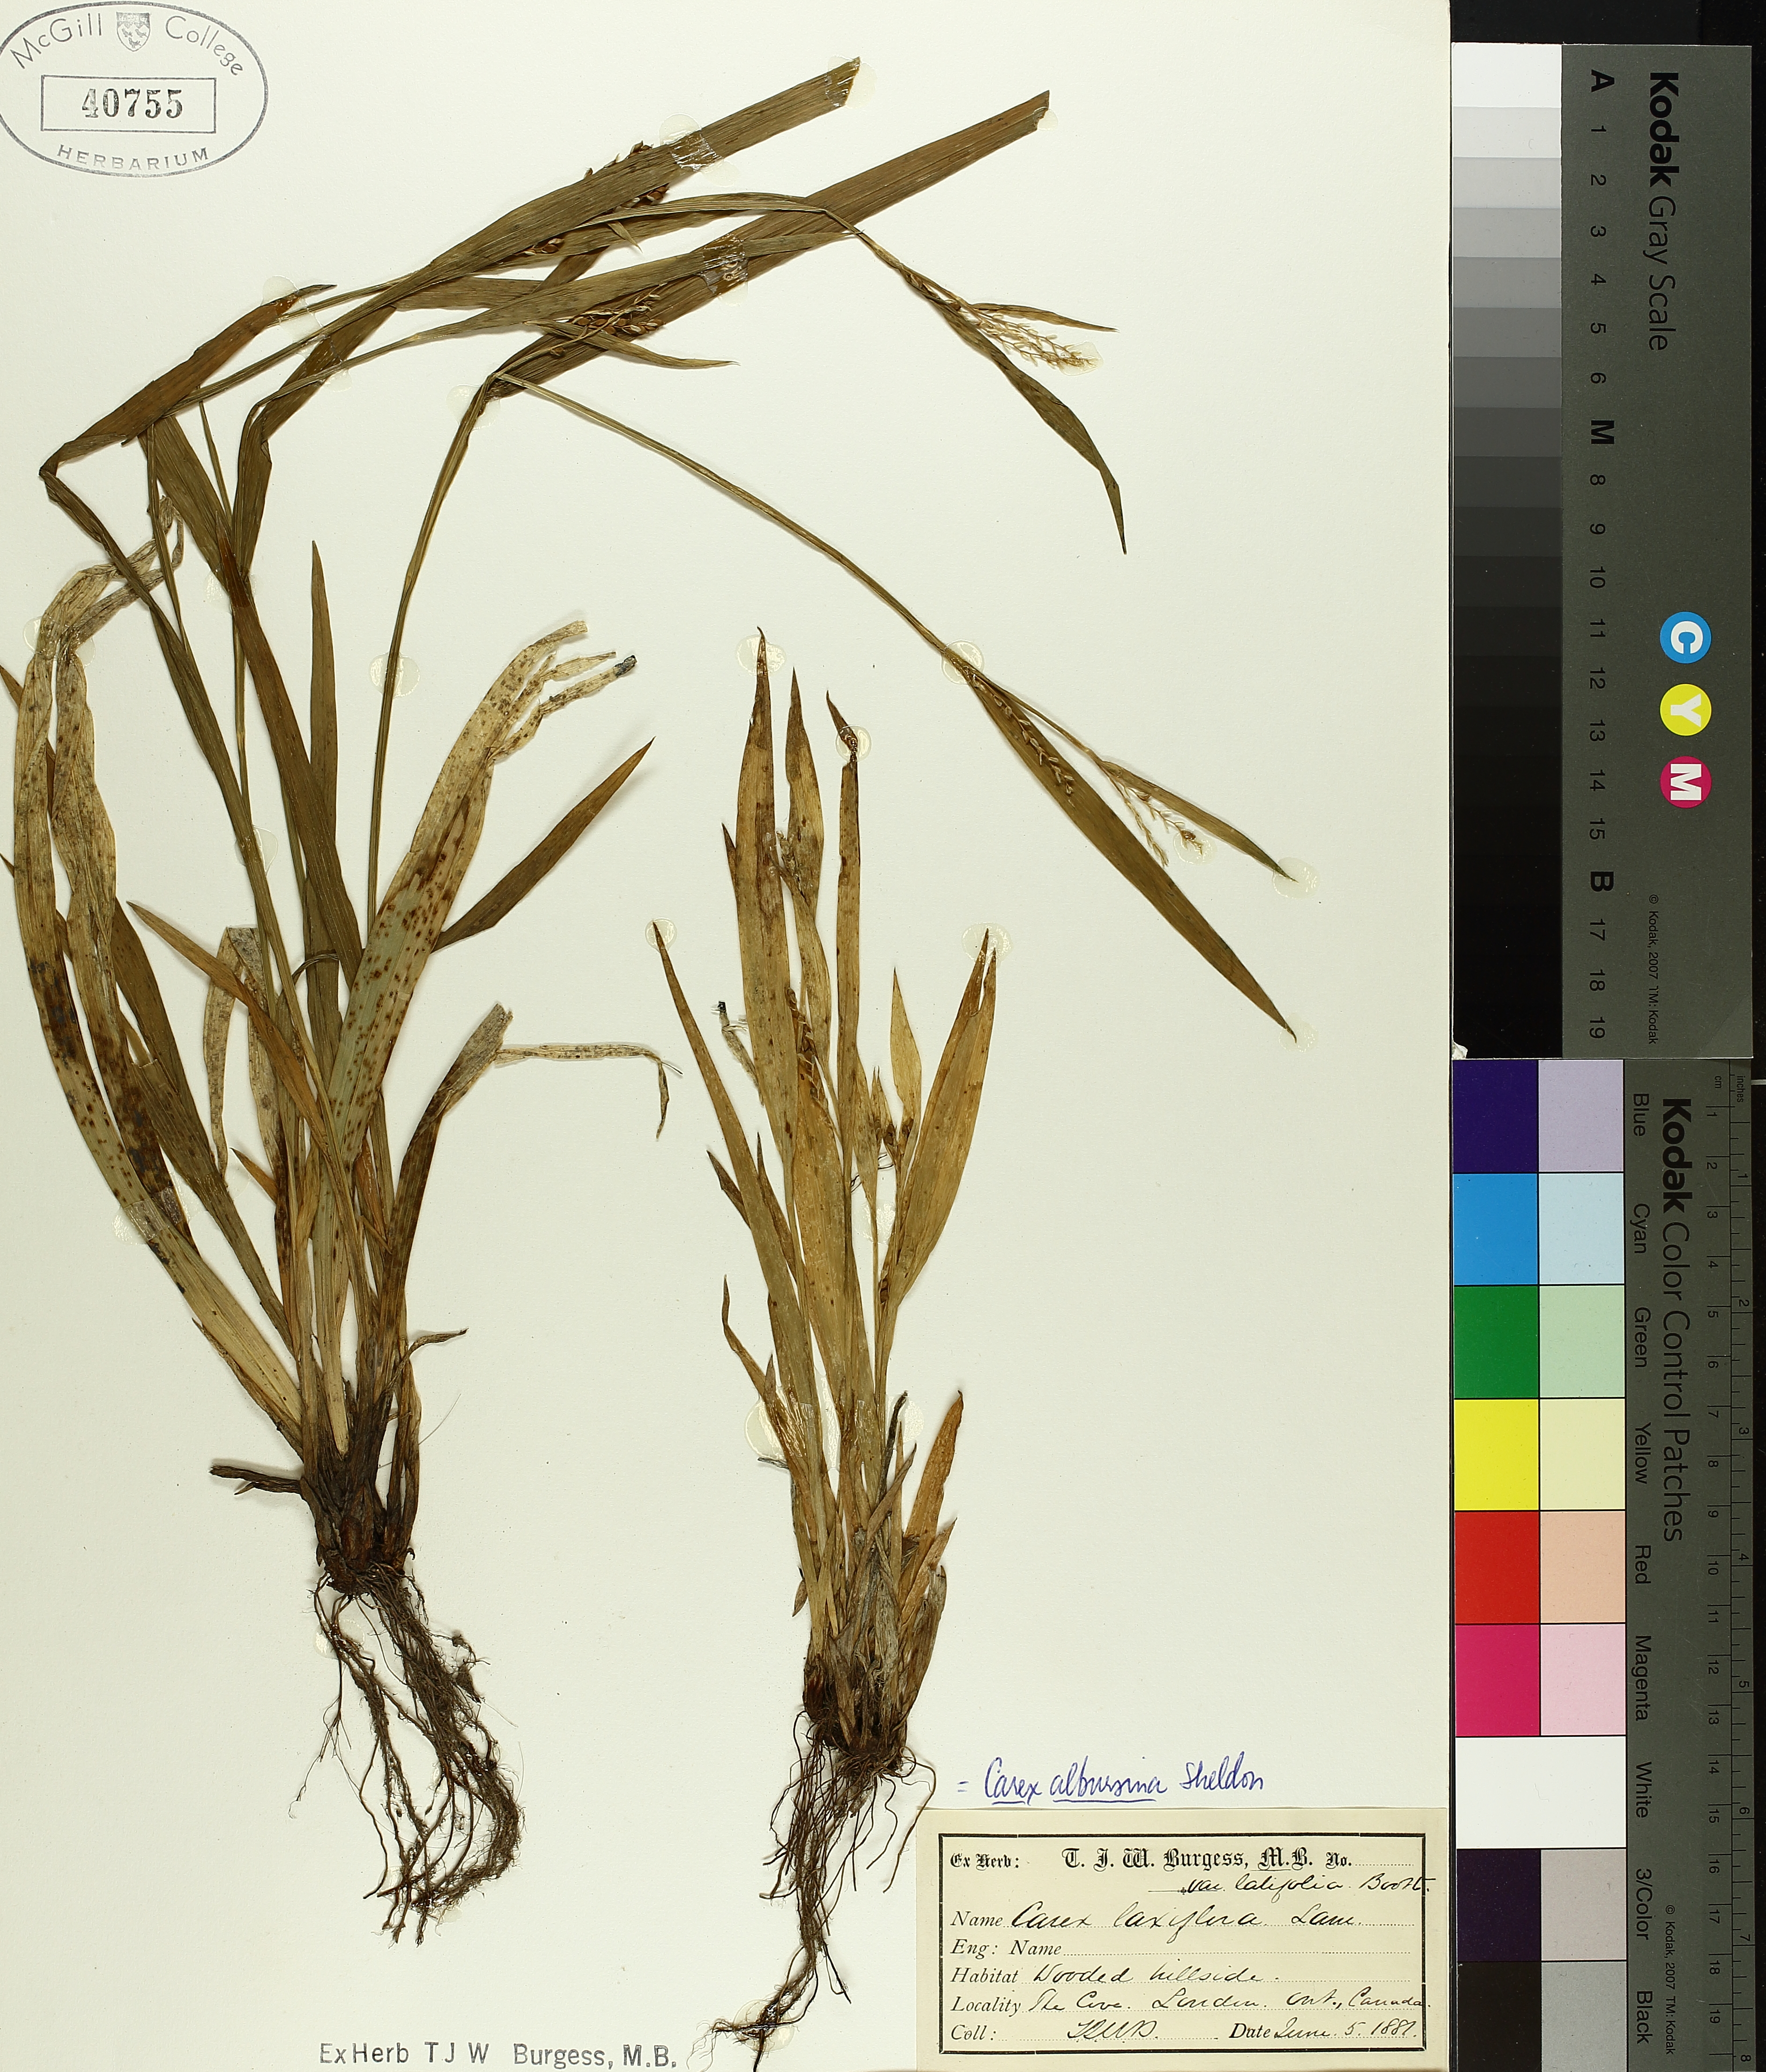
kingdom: Plantae
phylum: Tracheophyta
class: Liliopsida
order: Poales
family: Cyperaceae
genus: Carex
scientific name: Carex albursina
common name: Blunt-scale wood sedge
